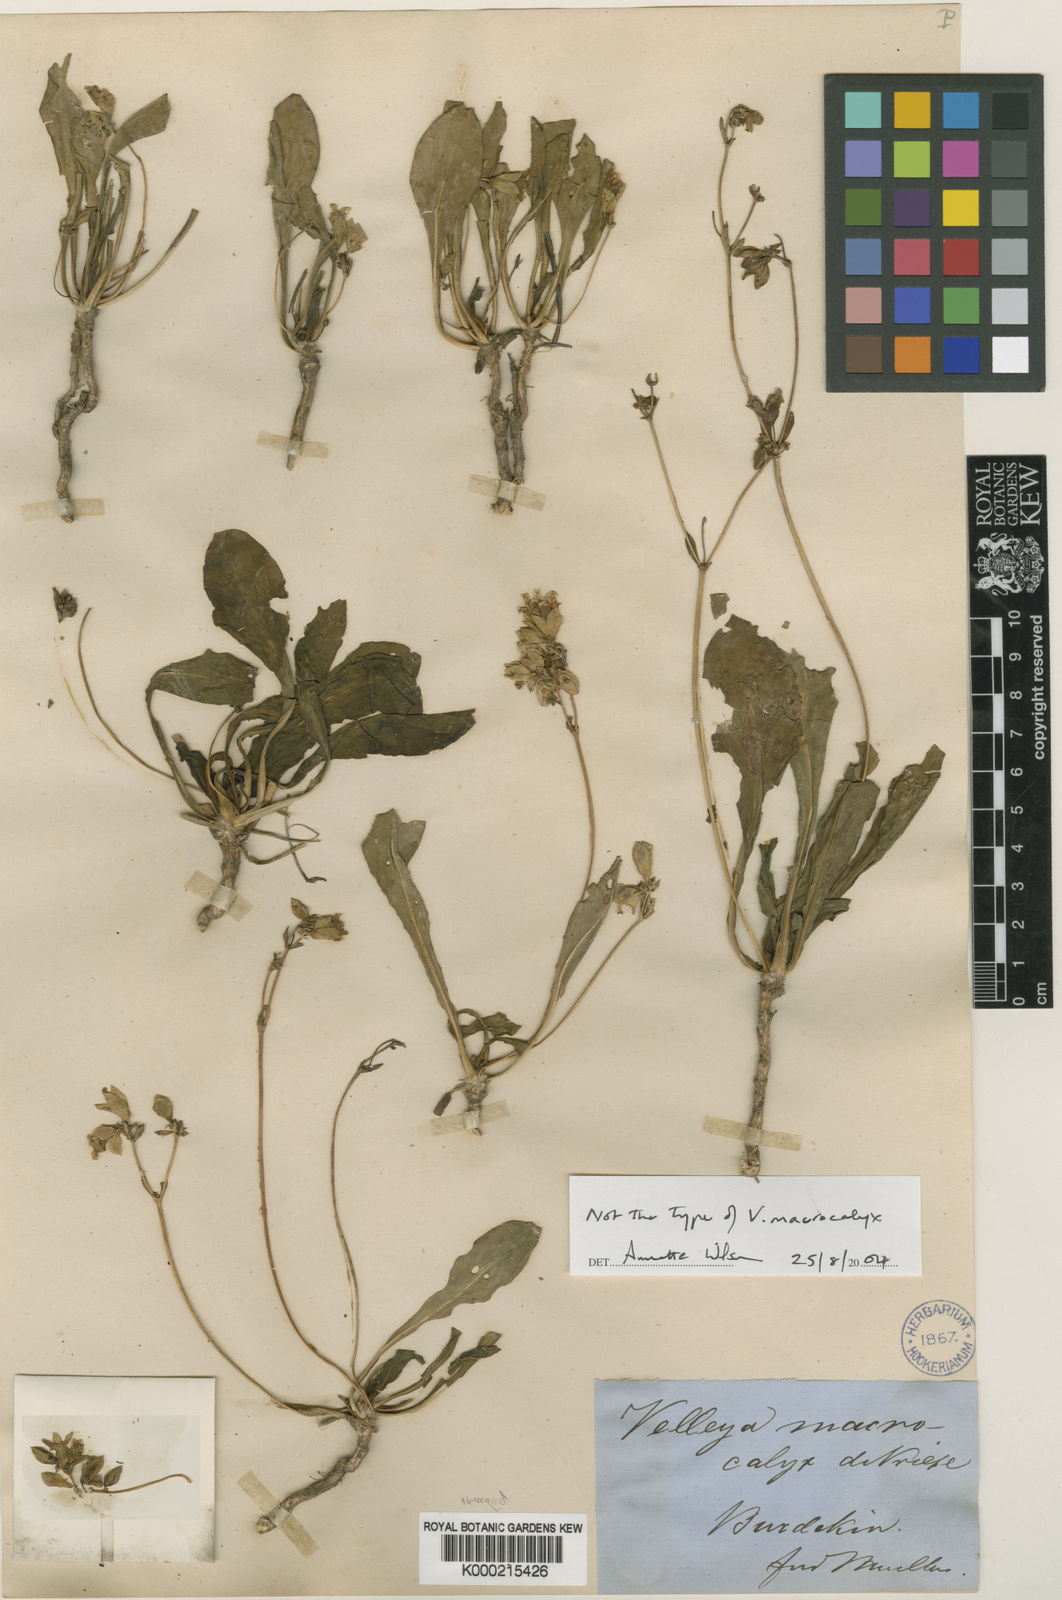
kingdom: Plantae
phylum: Tracheophyta
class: Magnoliopsida
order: Asterales
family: Goodeniaceae
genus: Goodenia
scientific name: Goodenia macrocalyx
